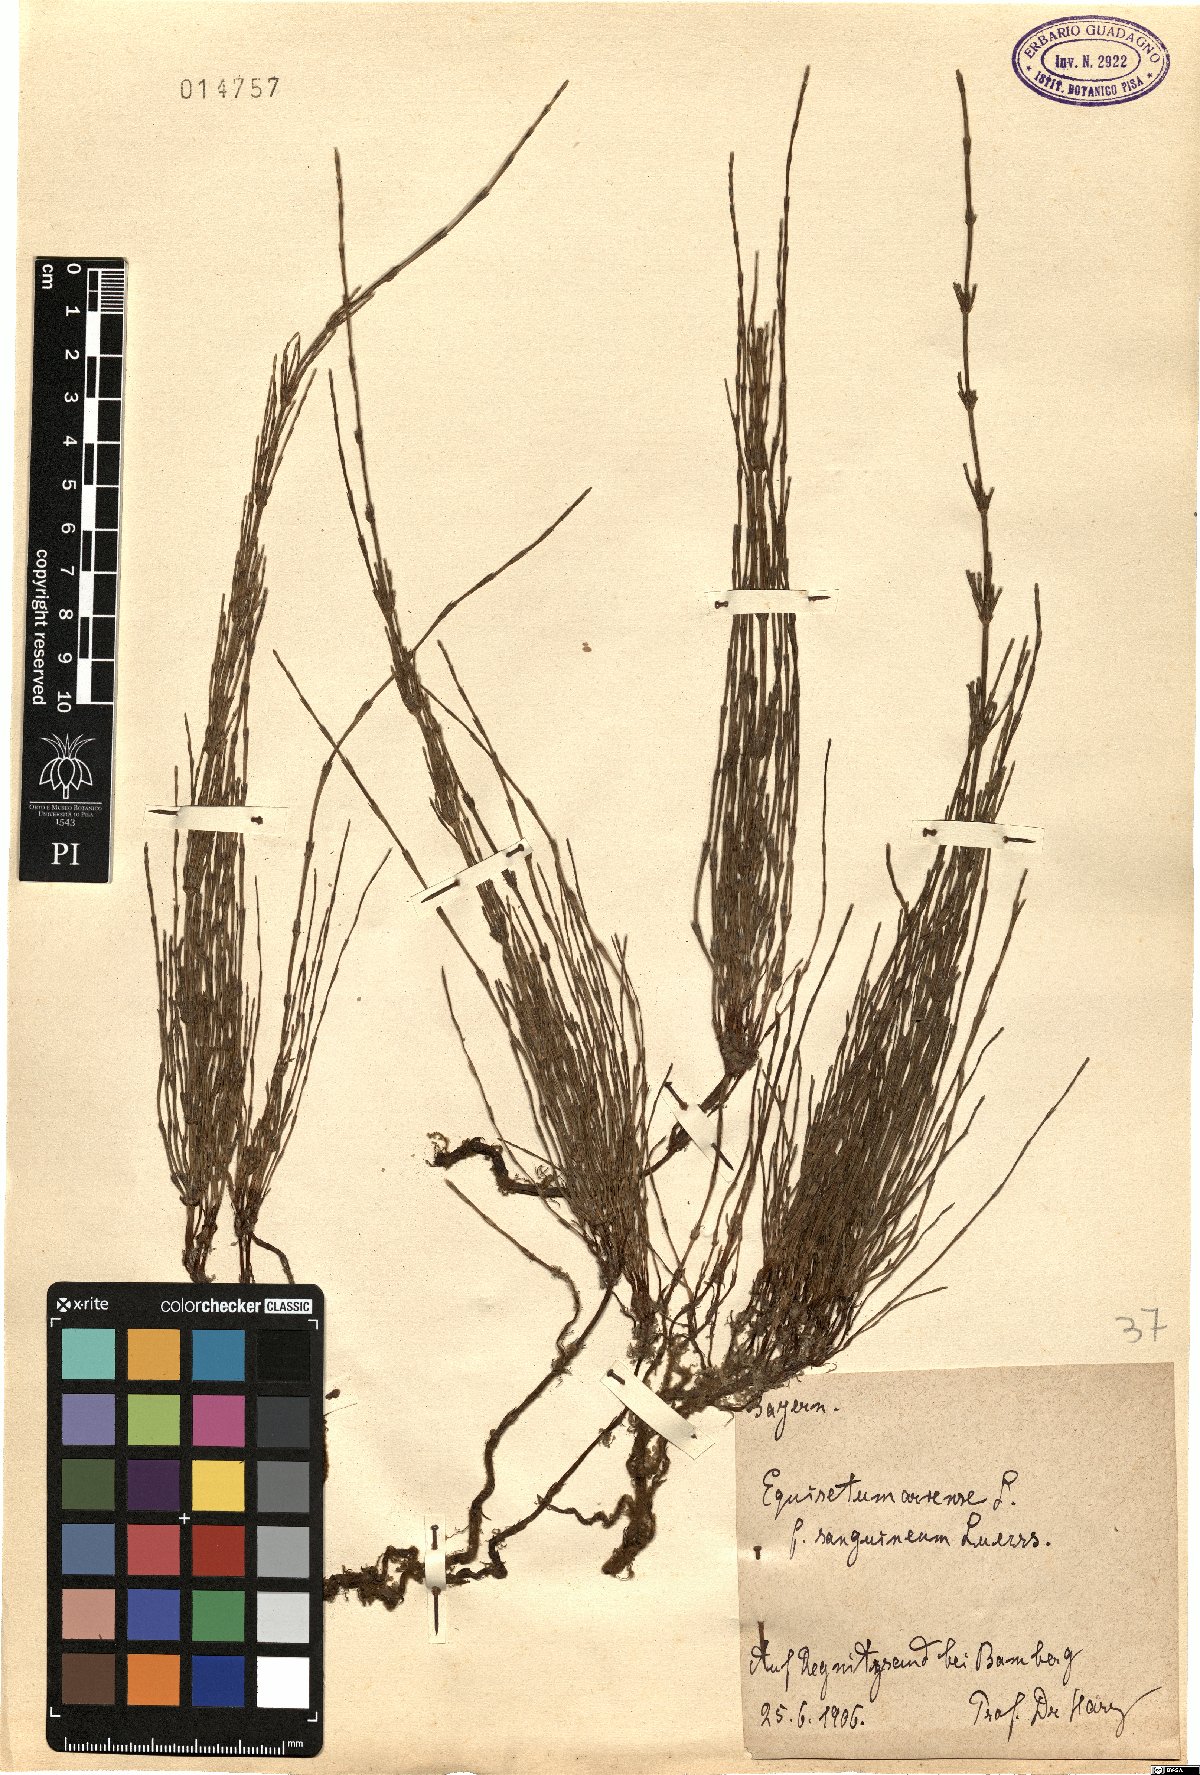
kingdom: Plantae
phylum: Tracheophyta
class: Polypodiopsida
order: Equisetales
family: Equisetaceae
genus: Equisetum
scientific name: Equisetum arvense
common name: Field horsetail
